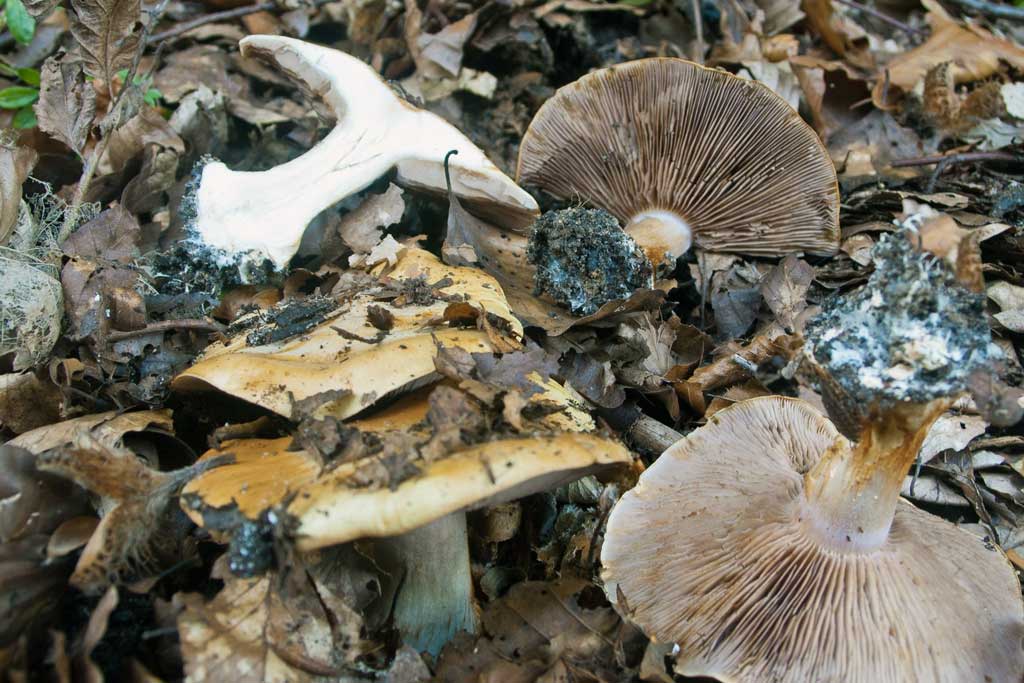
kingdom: Fungi
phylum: Basidiomycota
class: Agaricomycetes
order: Agaricales
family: Cortinariaceae
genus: Calonarius
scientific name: Calonarius selandicus
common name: sjællandsk slørhat
